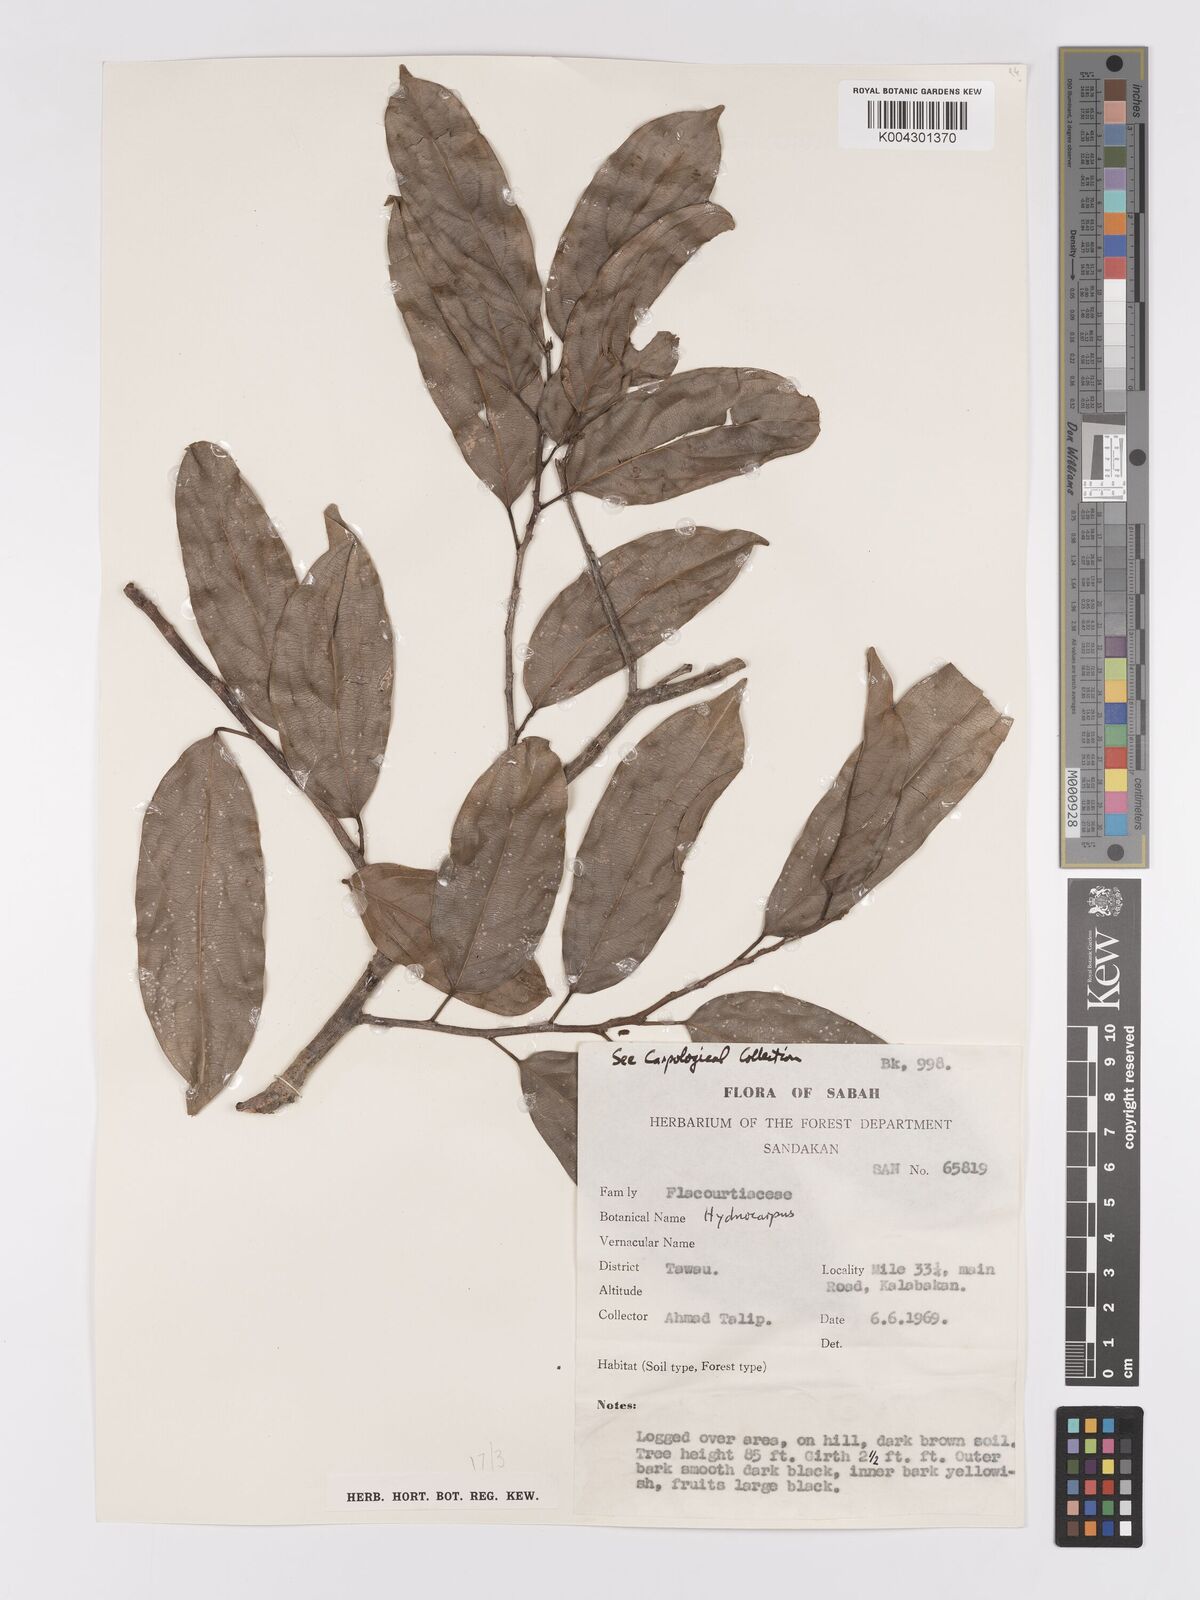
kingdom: Plantae
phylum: Tracheophyta
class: Magnoliopsida
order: Malpighiales
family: Achariaceae
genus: Hydnocarpus
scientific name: Hydnocarpus
